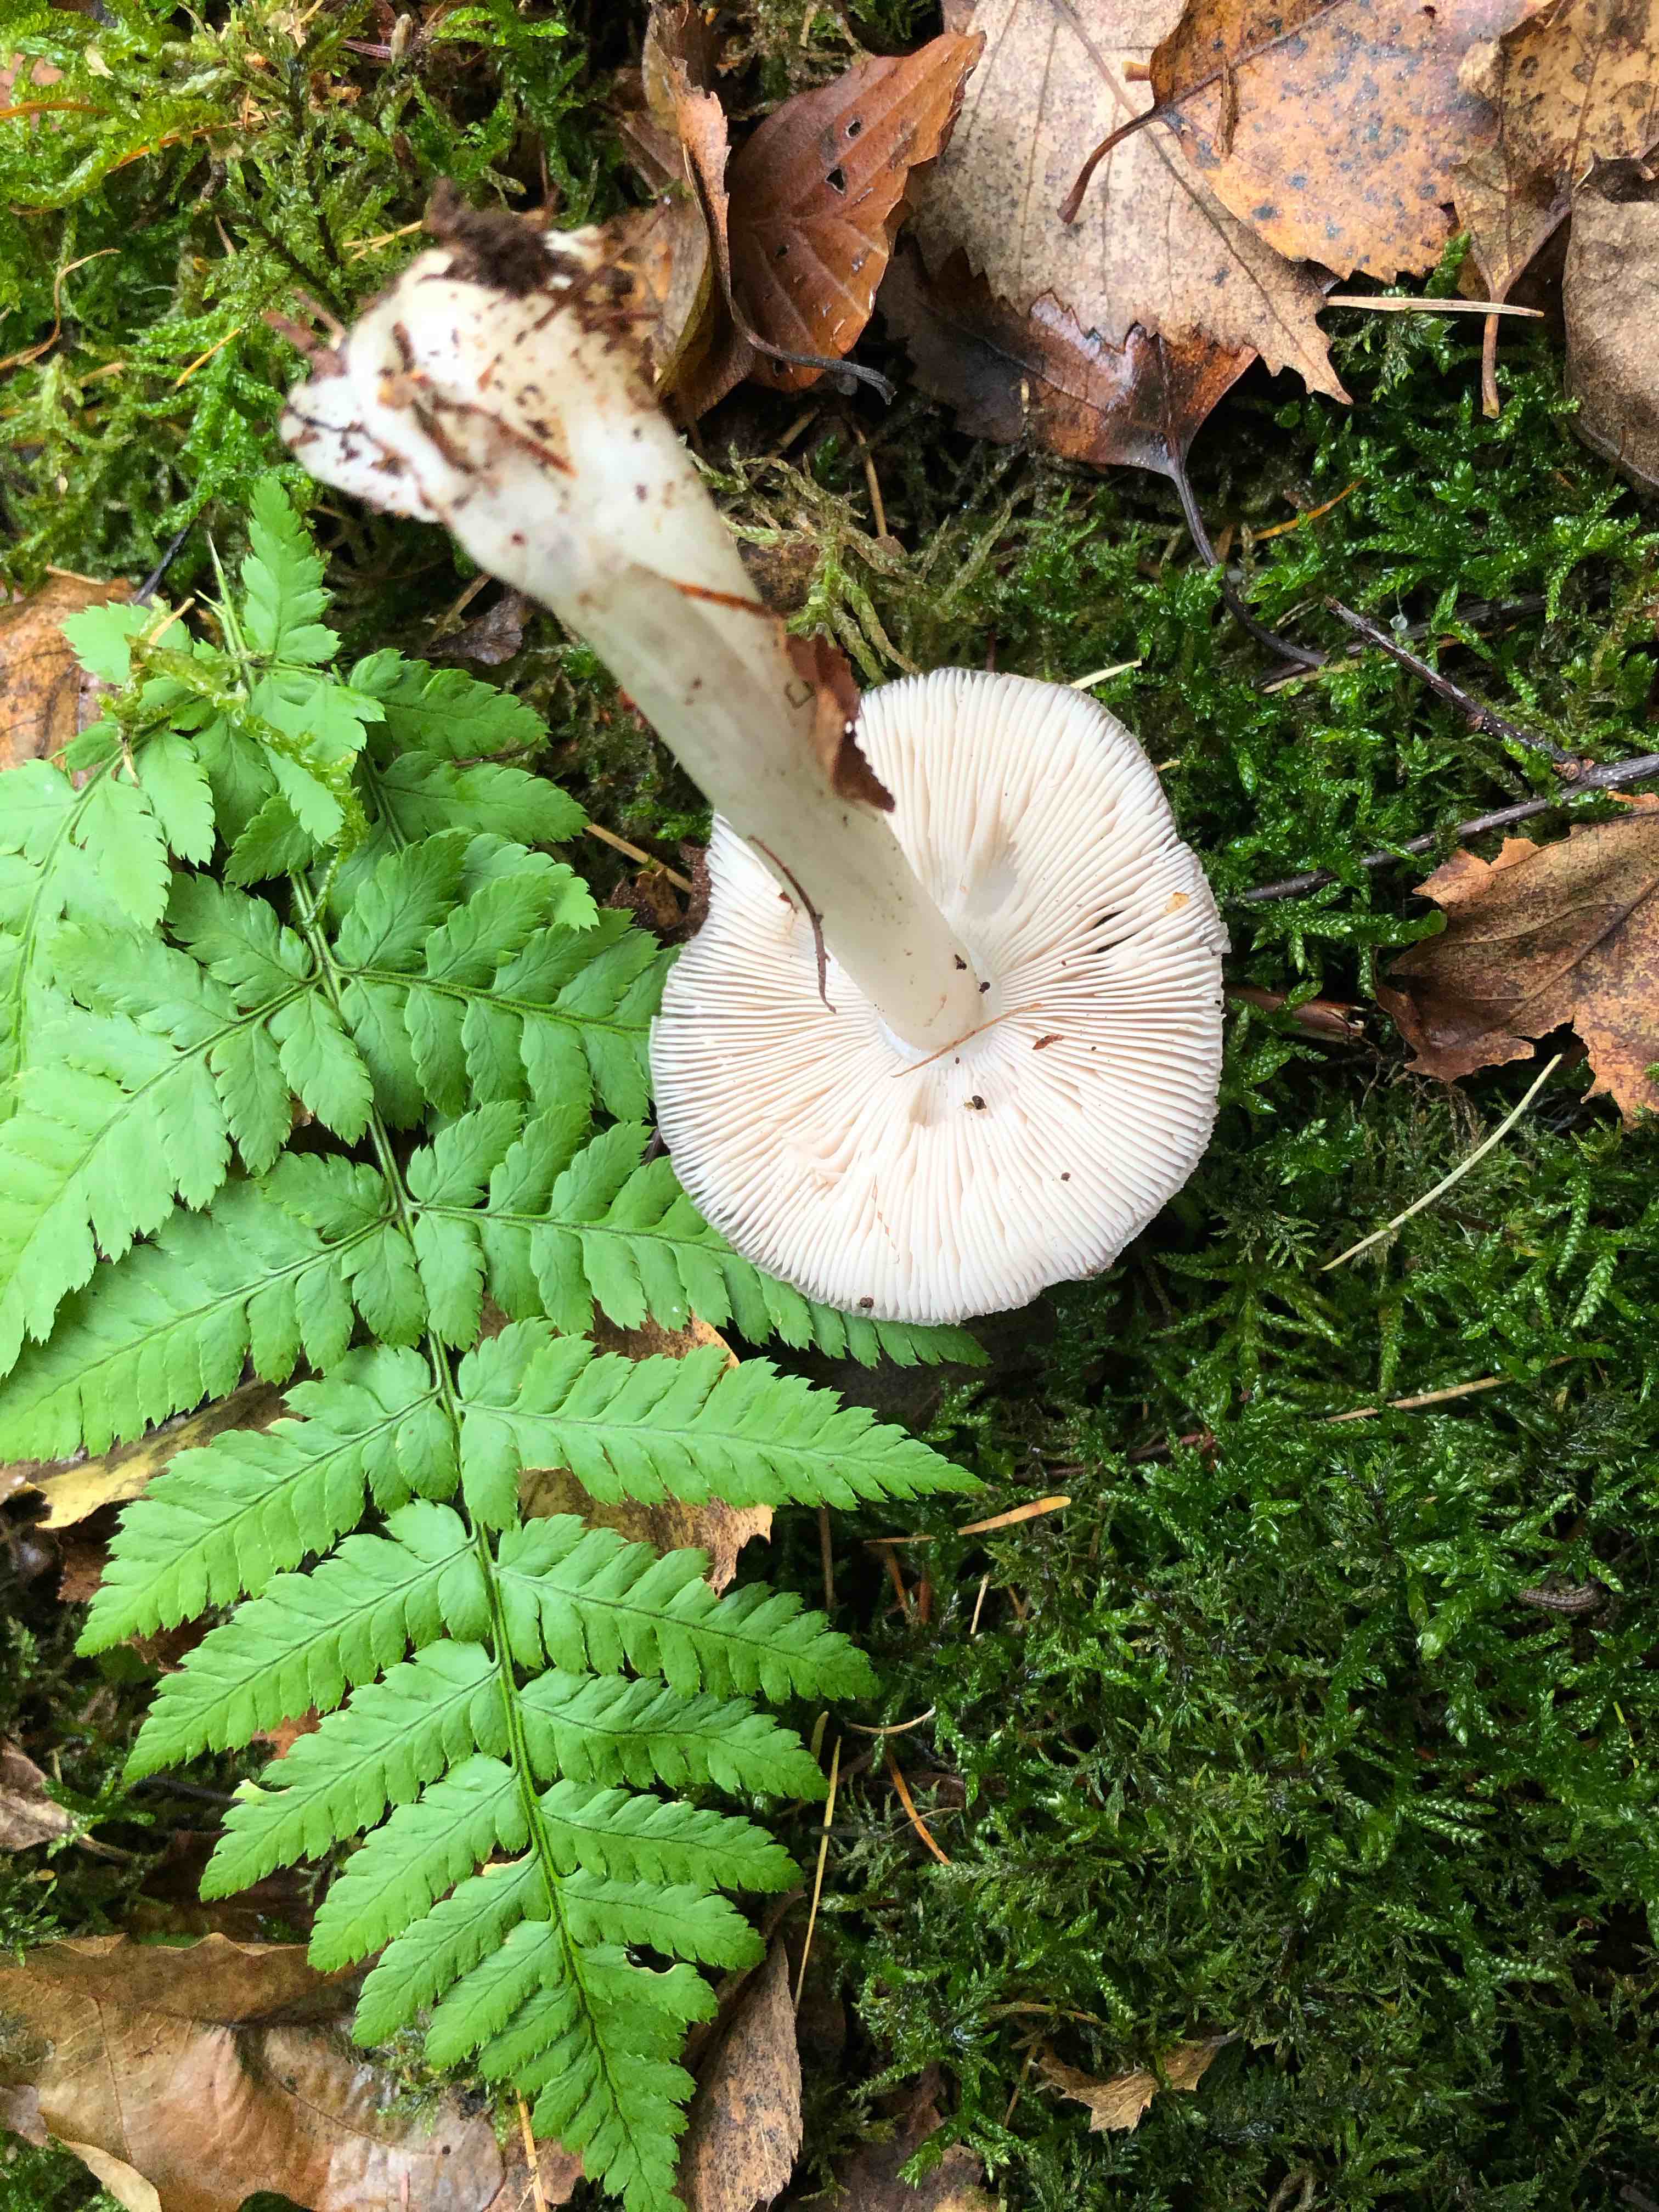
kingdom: Fungi
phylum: Basidiomycota
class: Agaricomycetes
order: Agaricales
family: Pluteaceae
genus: Pluteus
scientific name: Pluteus
